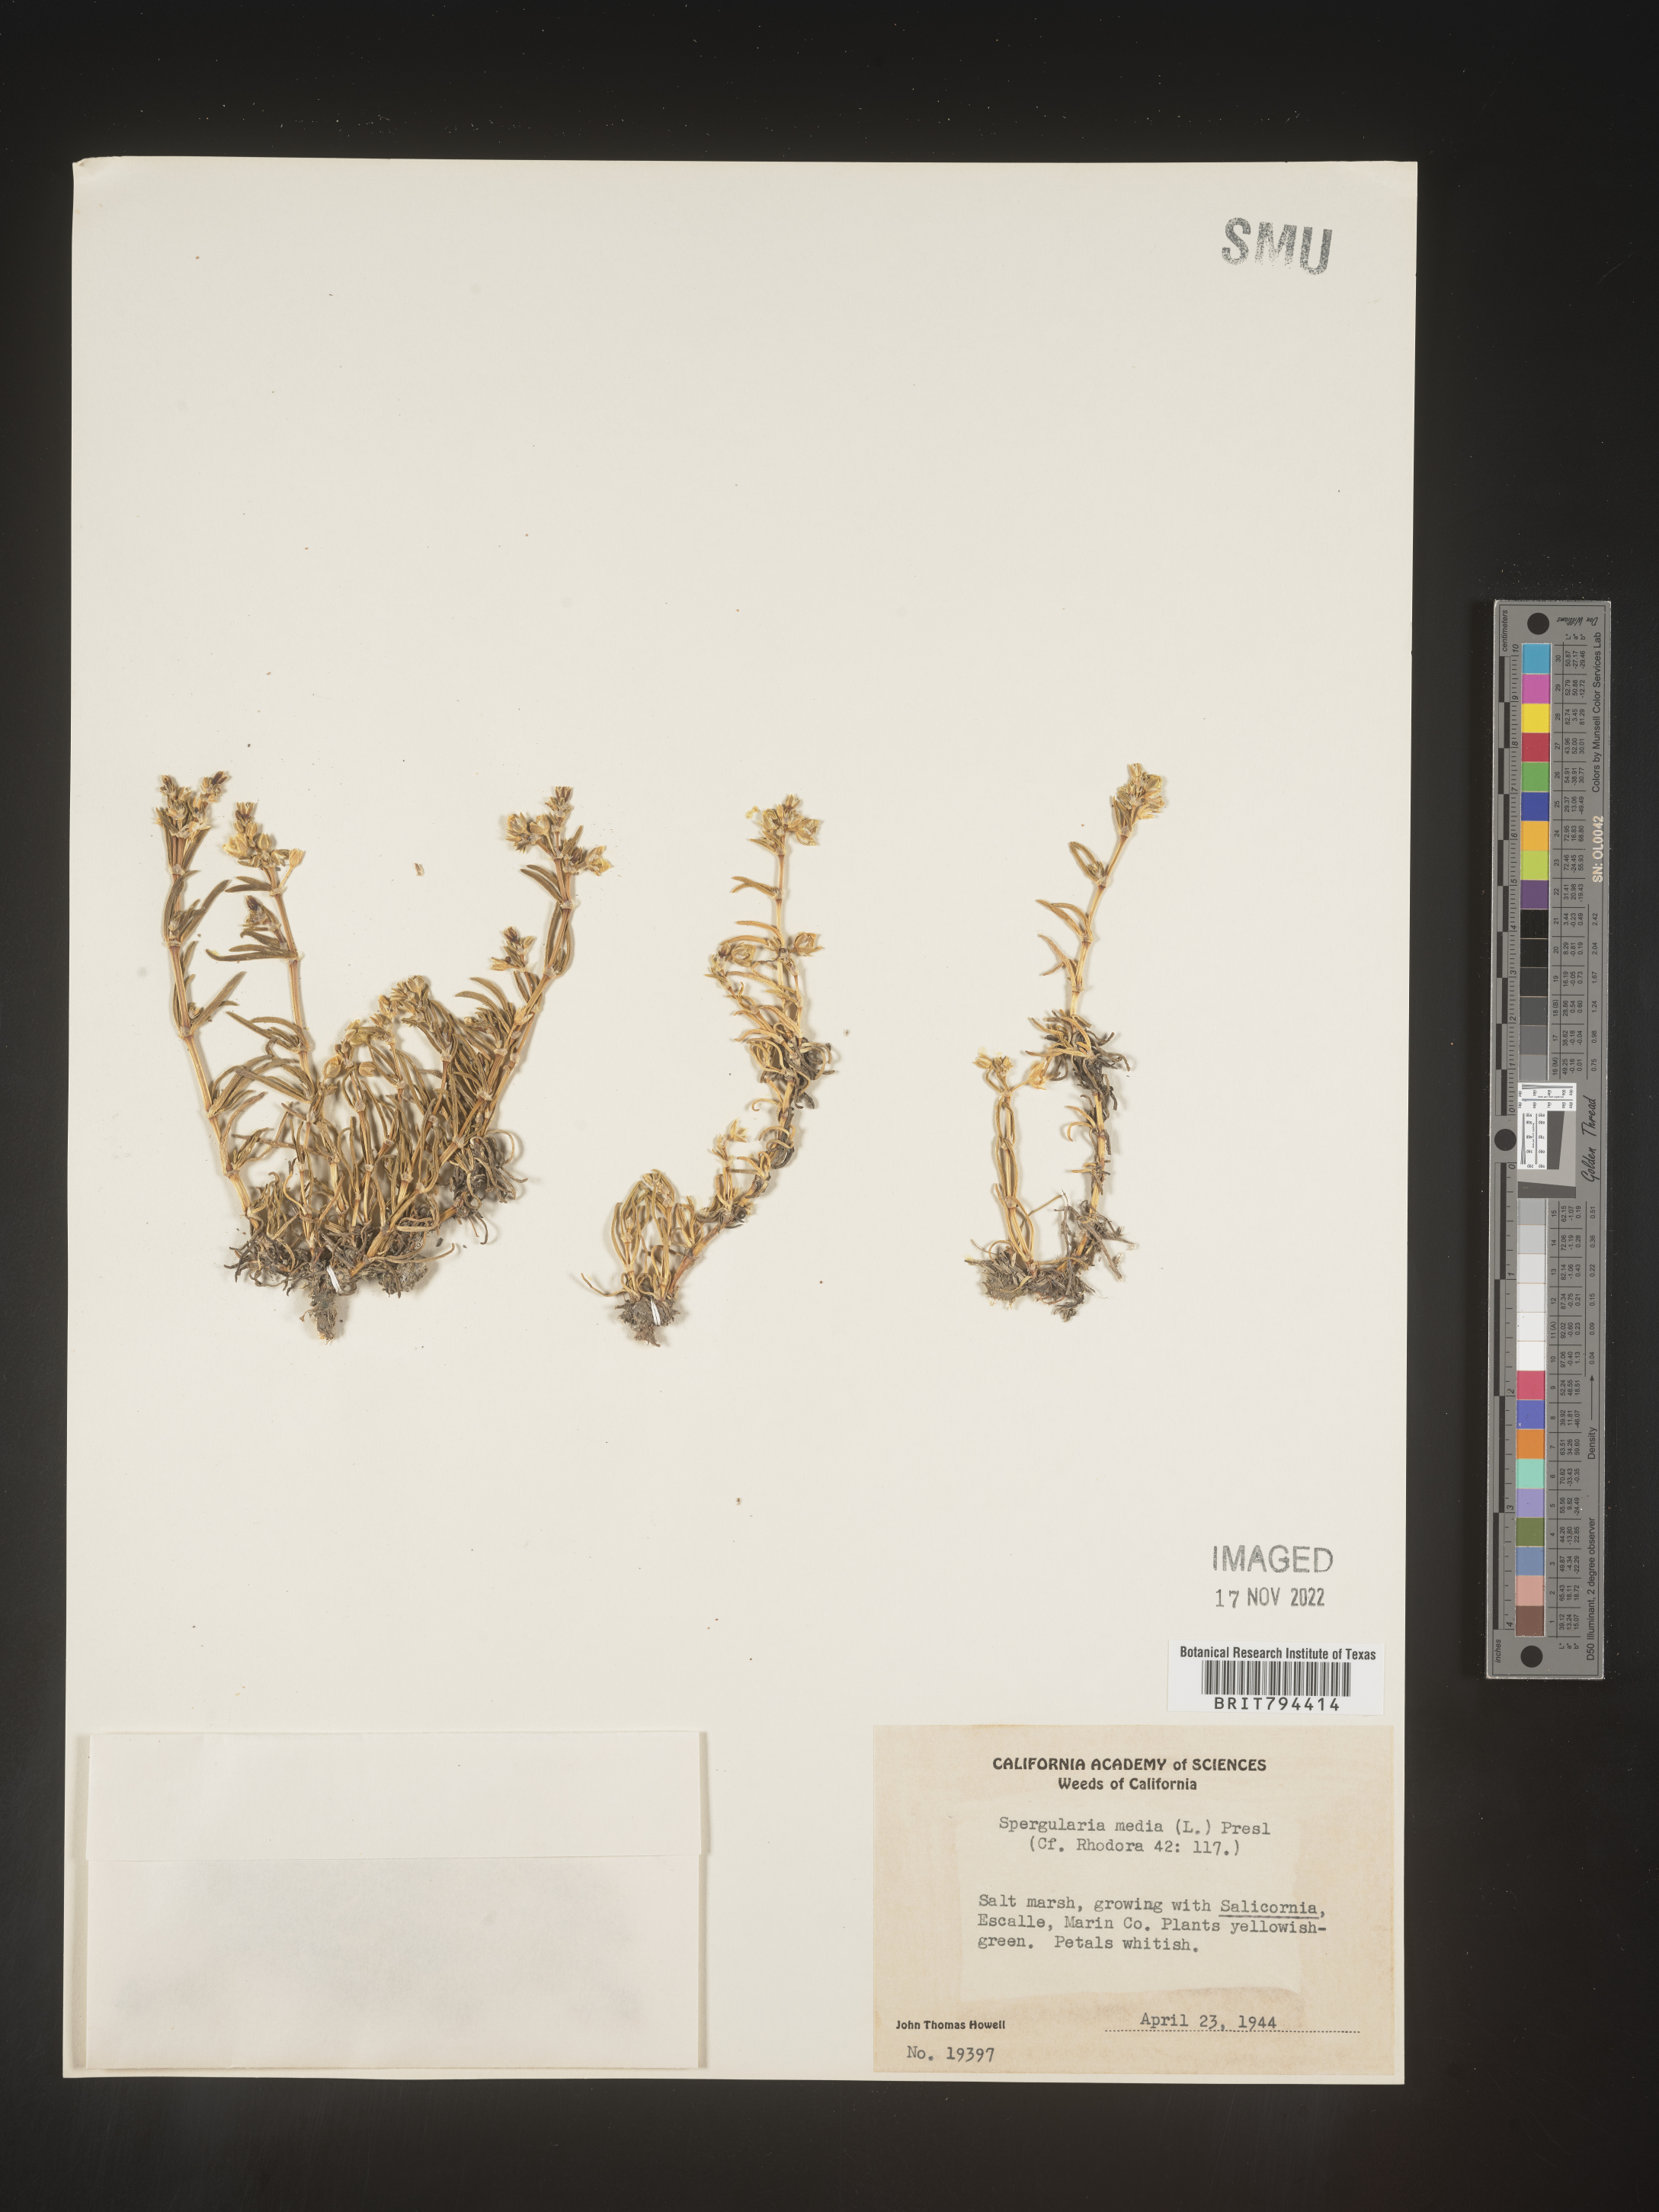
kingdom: Plantae
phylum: Tracheophyta
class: Magnoliopsida
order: Caryophyllales
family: Caryophyllaceae
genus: Spergularia
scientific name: Spergularia media
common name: Greater sea-spurrey
